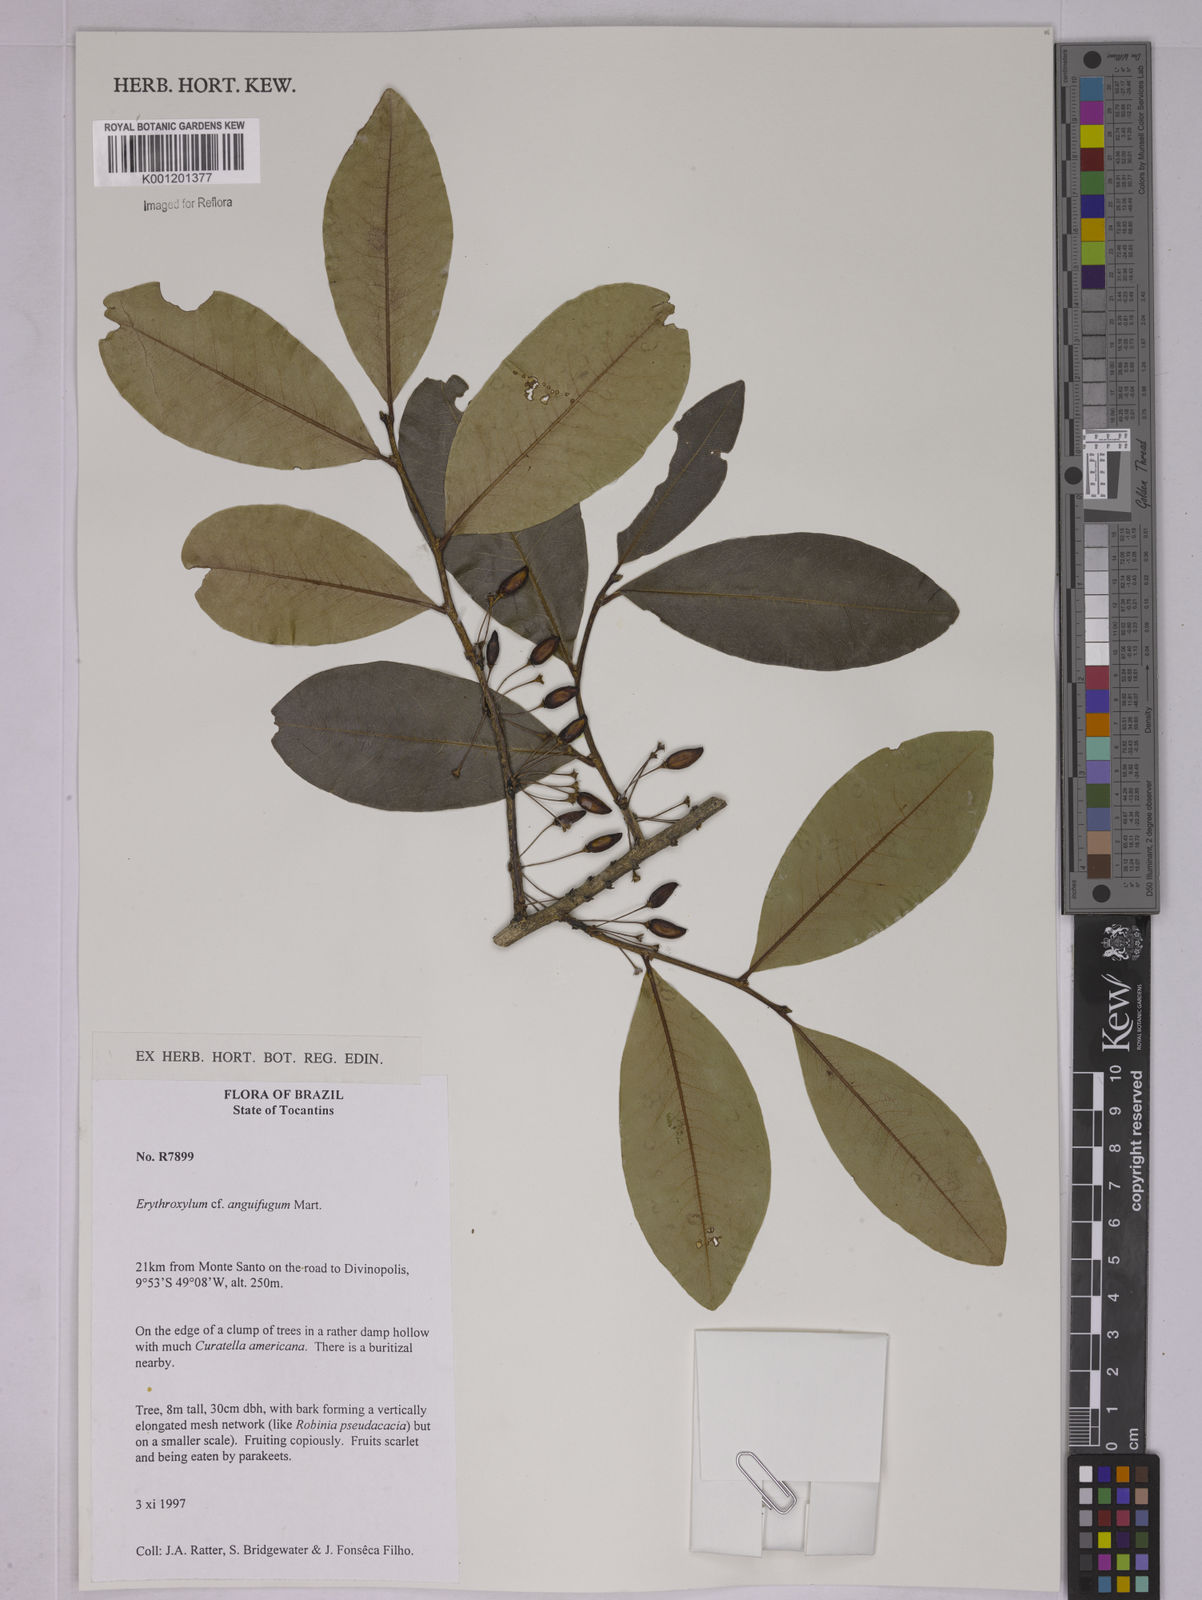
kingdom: Plantae
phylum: Tracheophyta
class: Magnoliopsida
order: Malpighiales
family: Erythroxylaceae
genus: Erythroxylum
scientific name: Erythroxylum anguifugum
